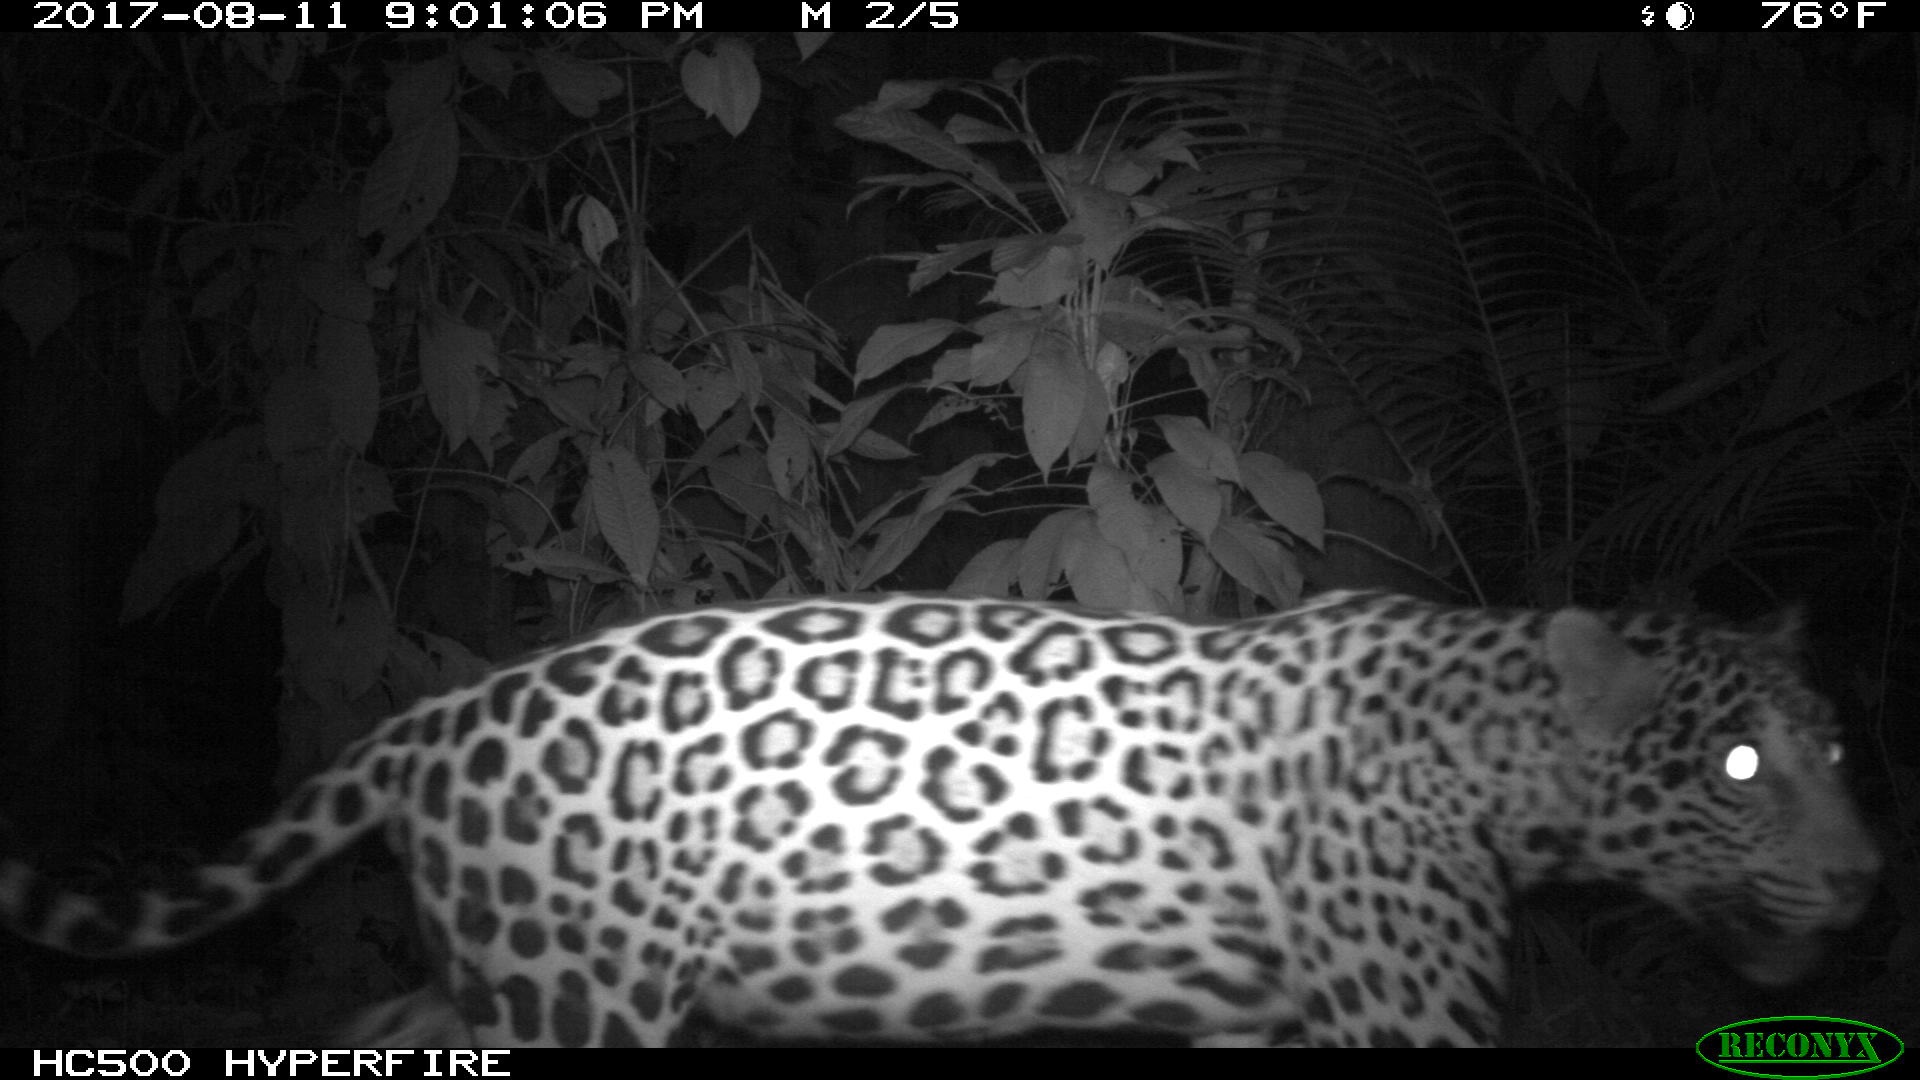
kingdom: Animalia
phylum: Chordata
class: Mammalia
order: Carnivora
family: Felidae
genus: Panthera
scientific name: Panthera onca
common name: Jaguar
